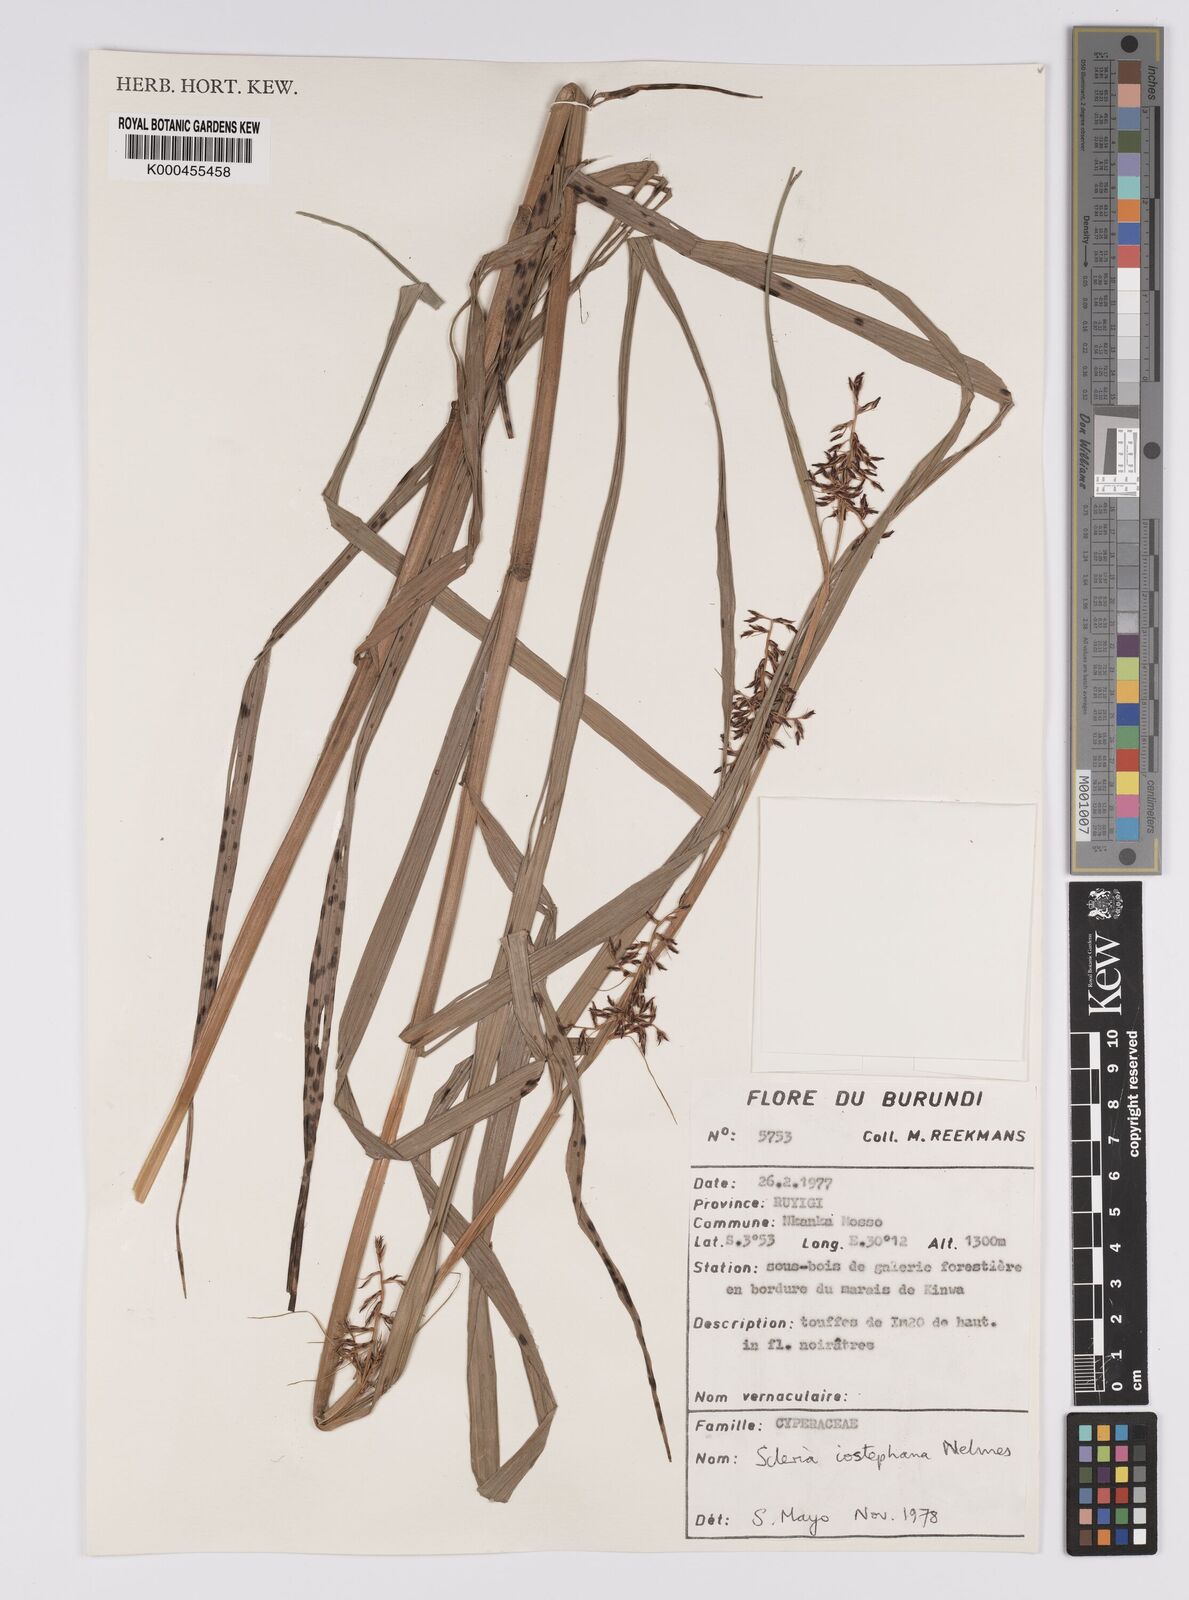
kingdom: Plantae
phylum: Tracheophyta
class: Liliopsida
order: Poales
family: Cyperaceae
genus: Scleria
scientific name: Scleria iostephana
